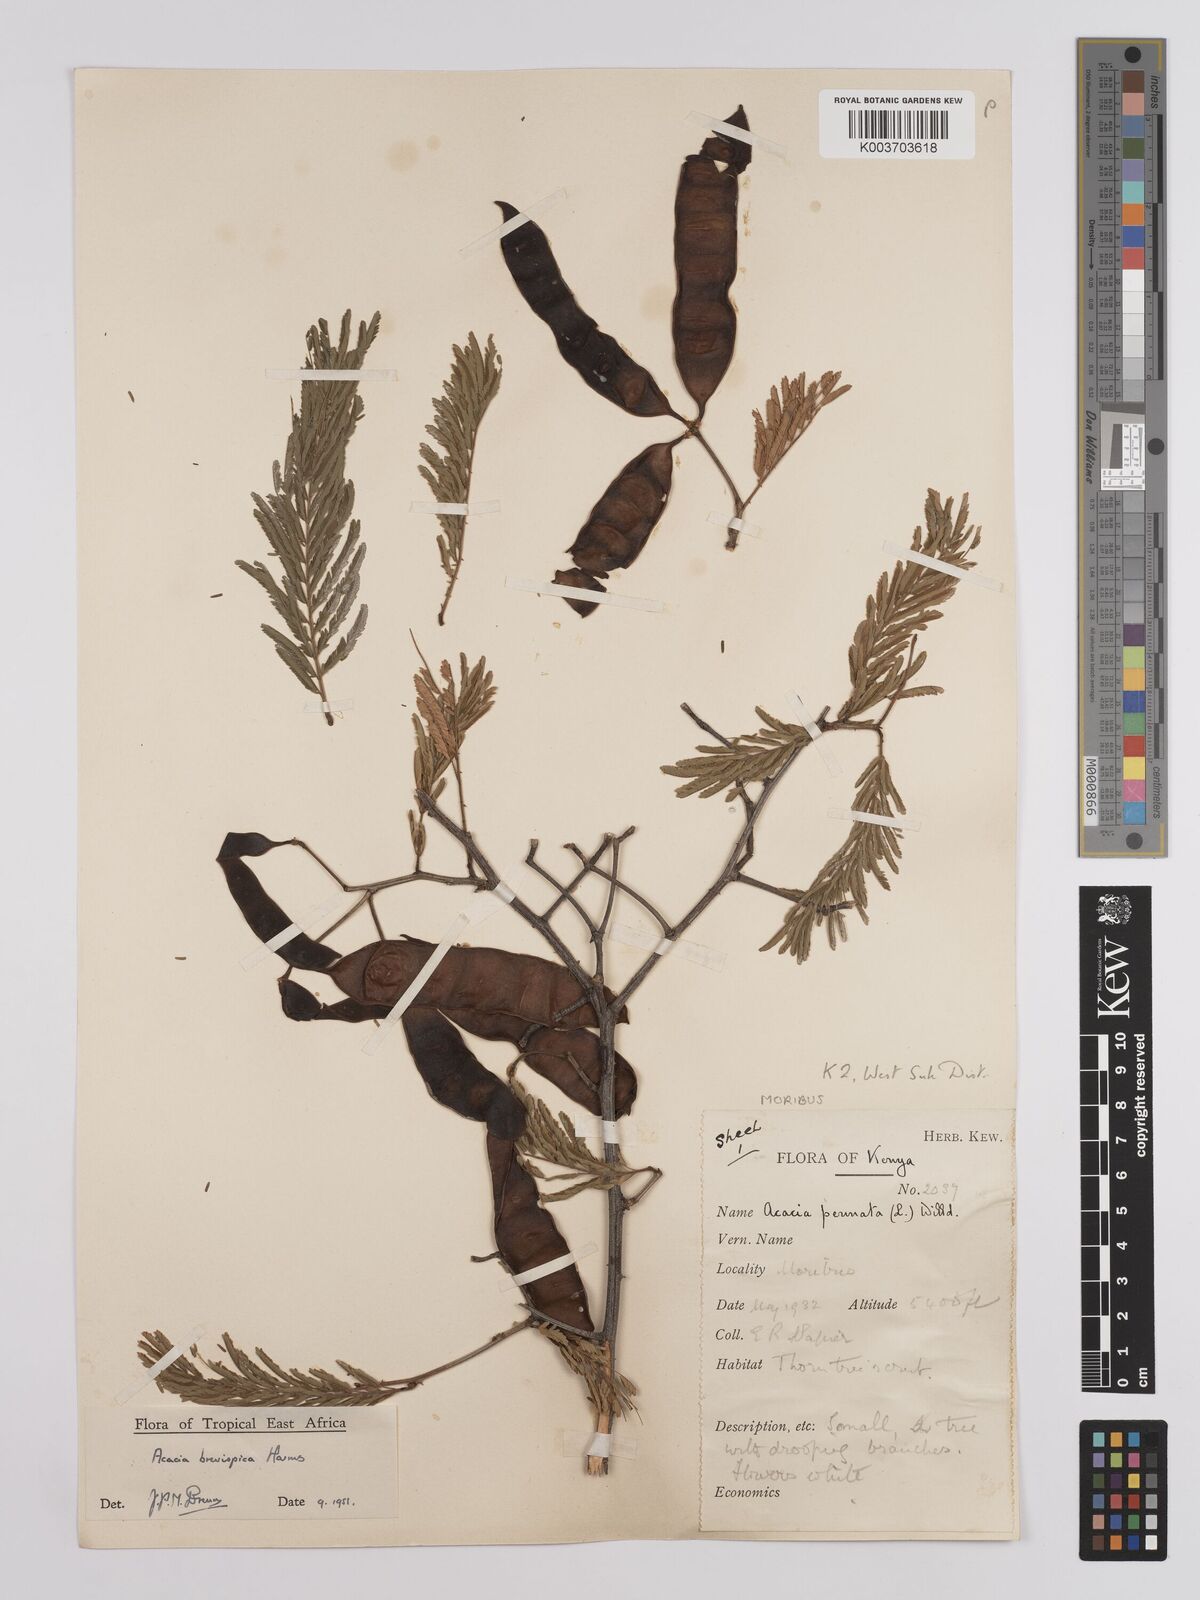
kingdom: Plantae
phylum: Tracheophyta
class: Magnoliopsida
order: Fabales
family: Fabaceae
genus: Senegalia
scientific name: Senegalia brevispica
